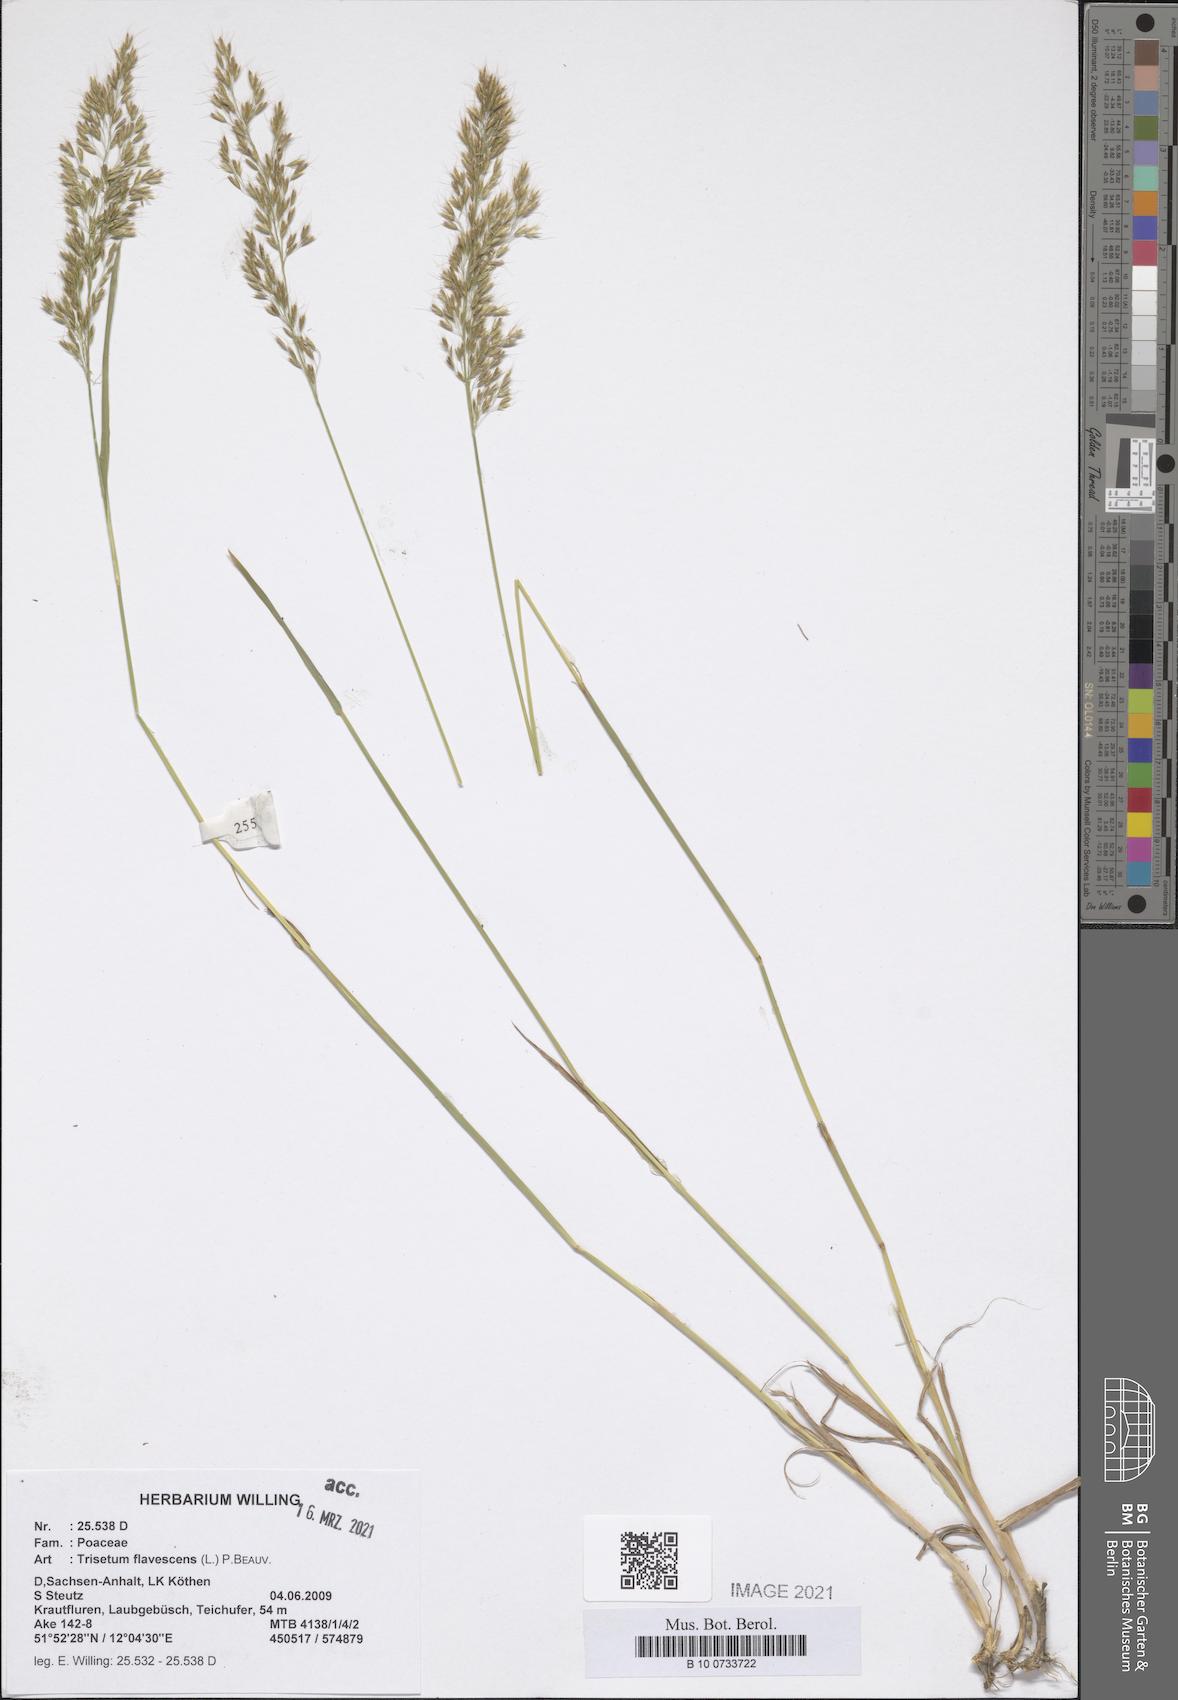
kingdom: Plantae
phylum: Tracheophyta
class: Liliopsida
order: Poales
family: Poaceae
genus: Trisetum
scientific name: Trisetum flavescens
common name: Yellow oat-grass
